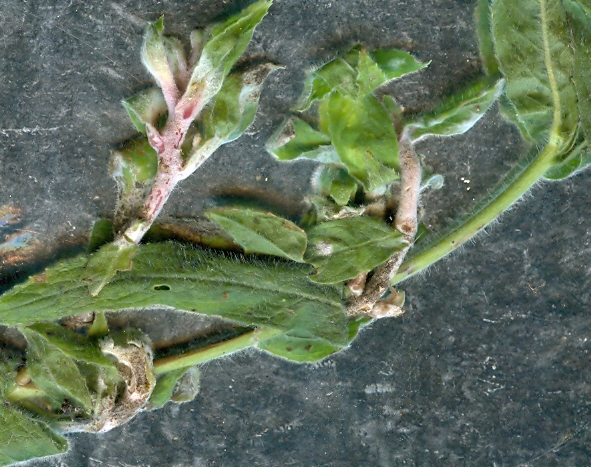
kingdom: Fungi
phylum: Ascomycota
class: Leotiomycetes
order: Helotiales
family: Erysiphaceae
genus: Podosphaera
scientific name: Podosphaera epilobii
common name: dueurt-meldug
